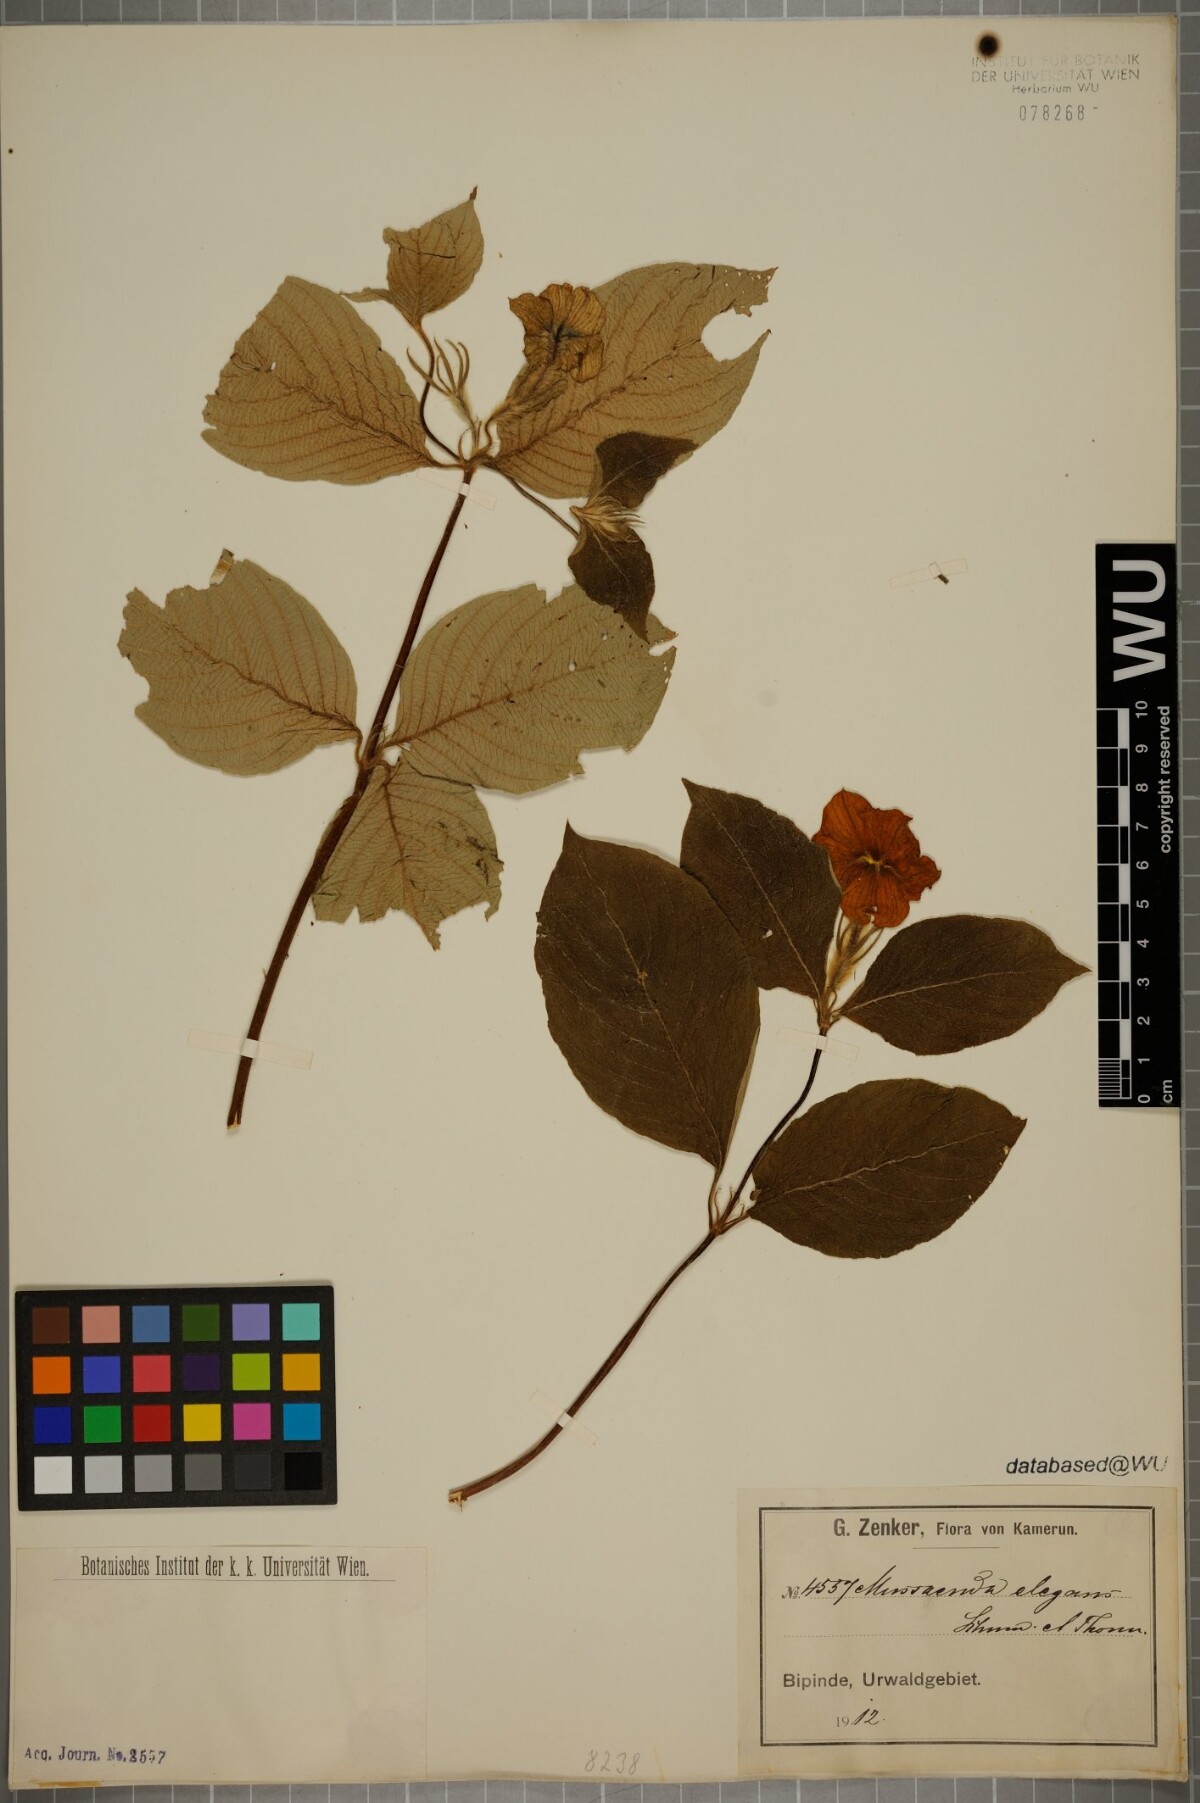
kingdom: Plantae
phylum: Tracheophyta
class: Magnoliopsida
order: Gentianales
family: Rubiaceae
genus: Mussaenda
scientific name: Mussaenda elegans
